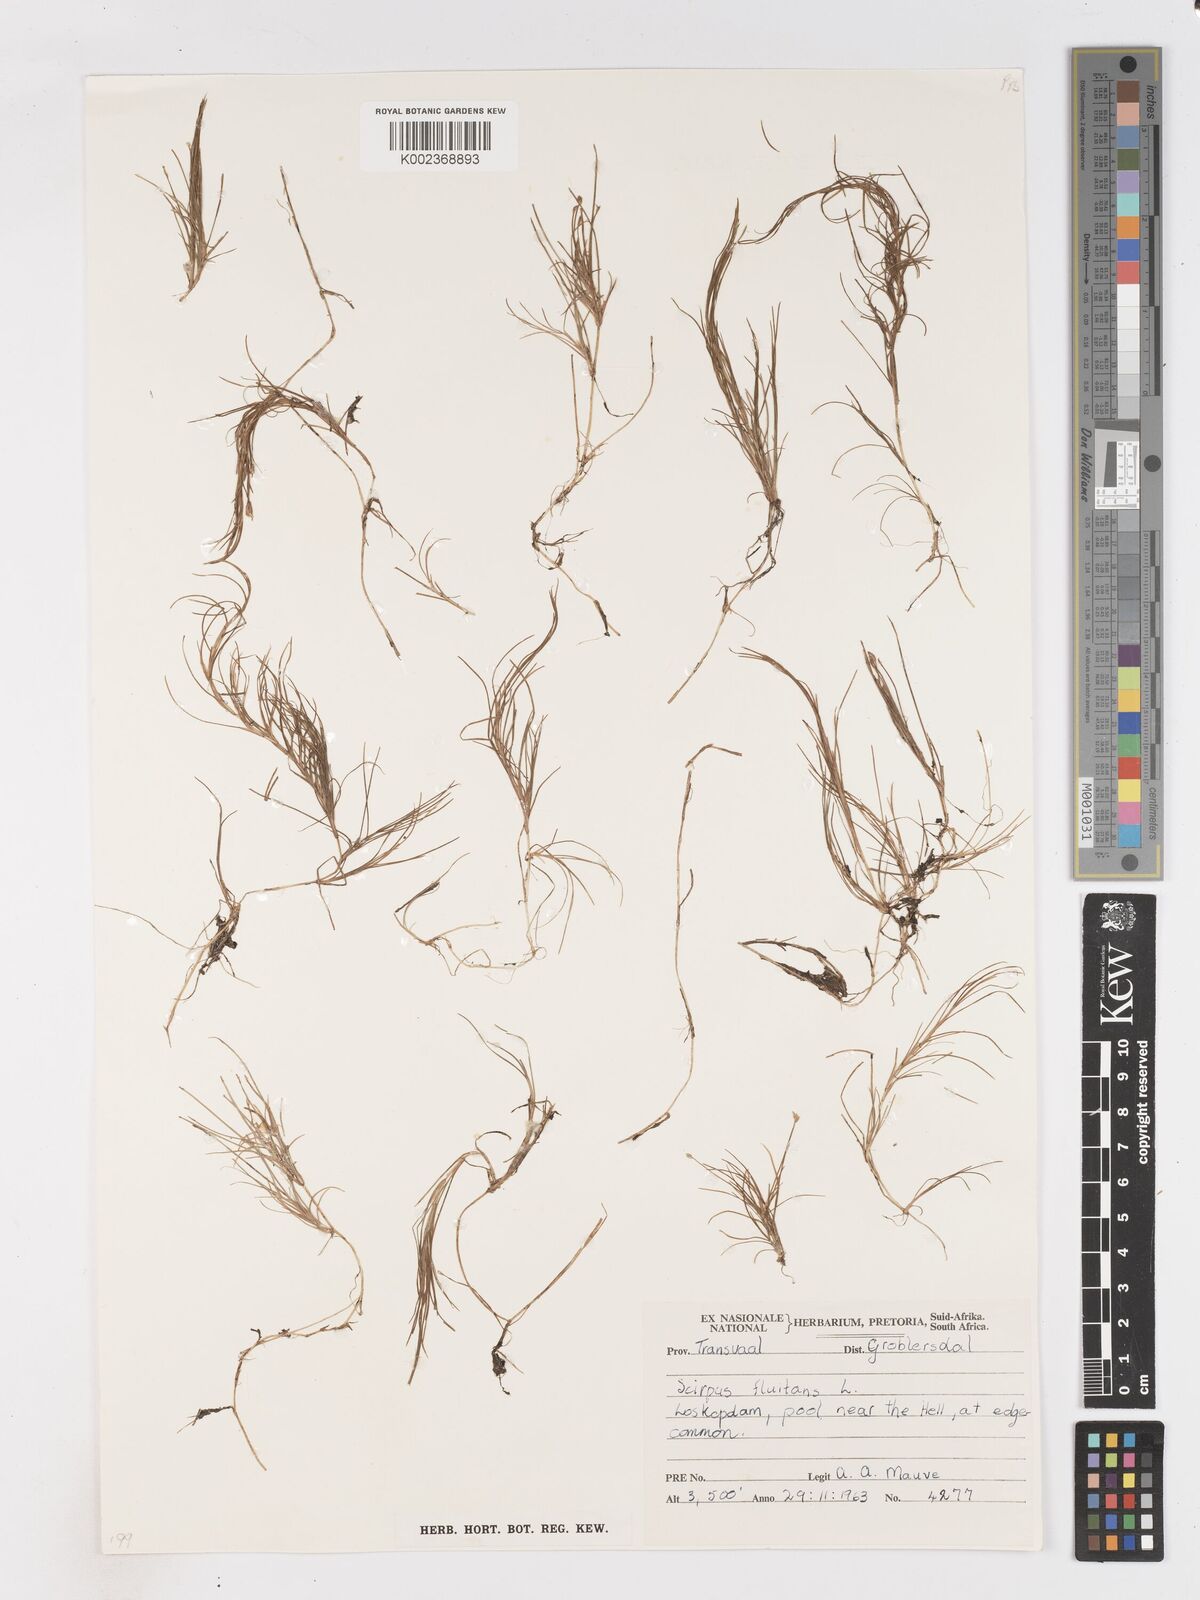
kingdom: Plantae
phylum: Tracheophyta
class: Liliopsida
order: Poales
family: Cyperaceae
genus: Isolepis
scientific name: Isolepis fluitans
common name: Floating club-rush
